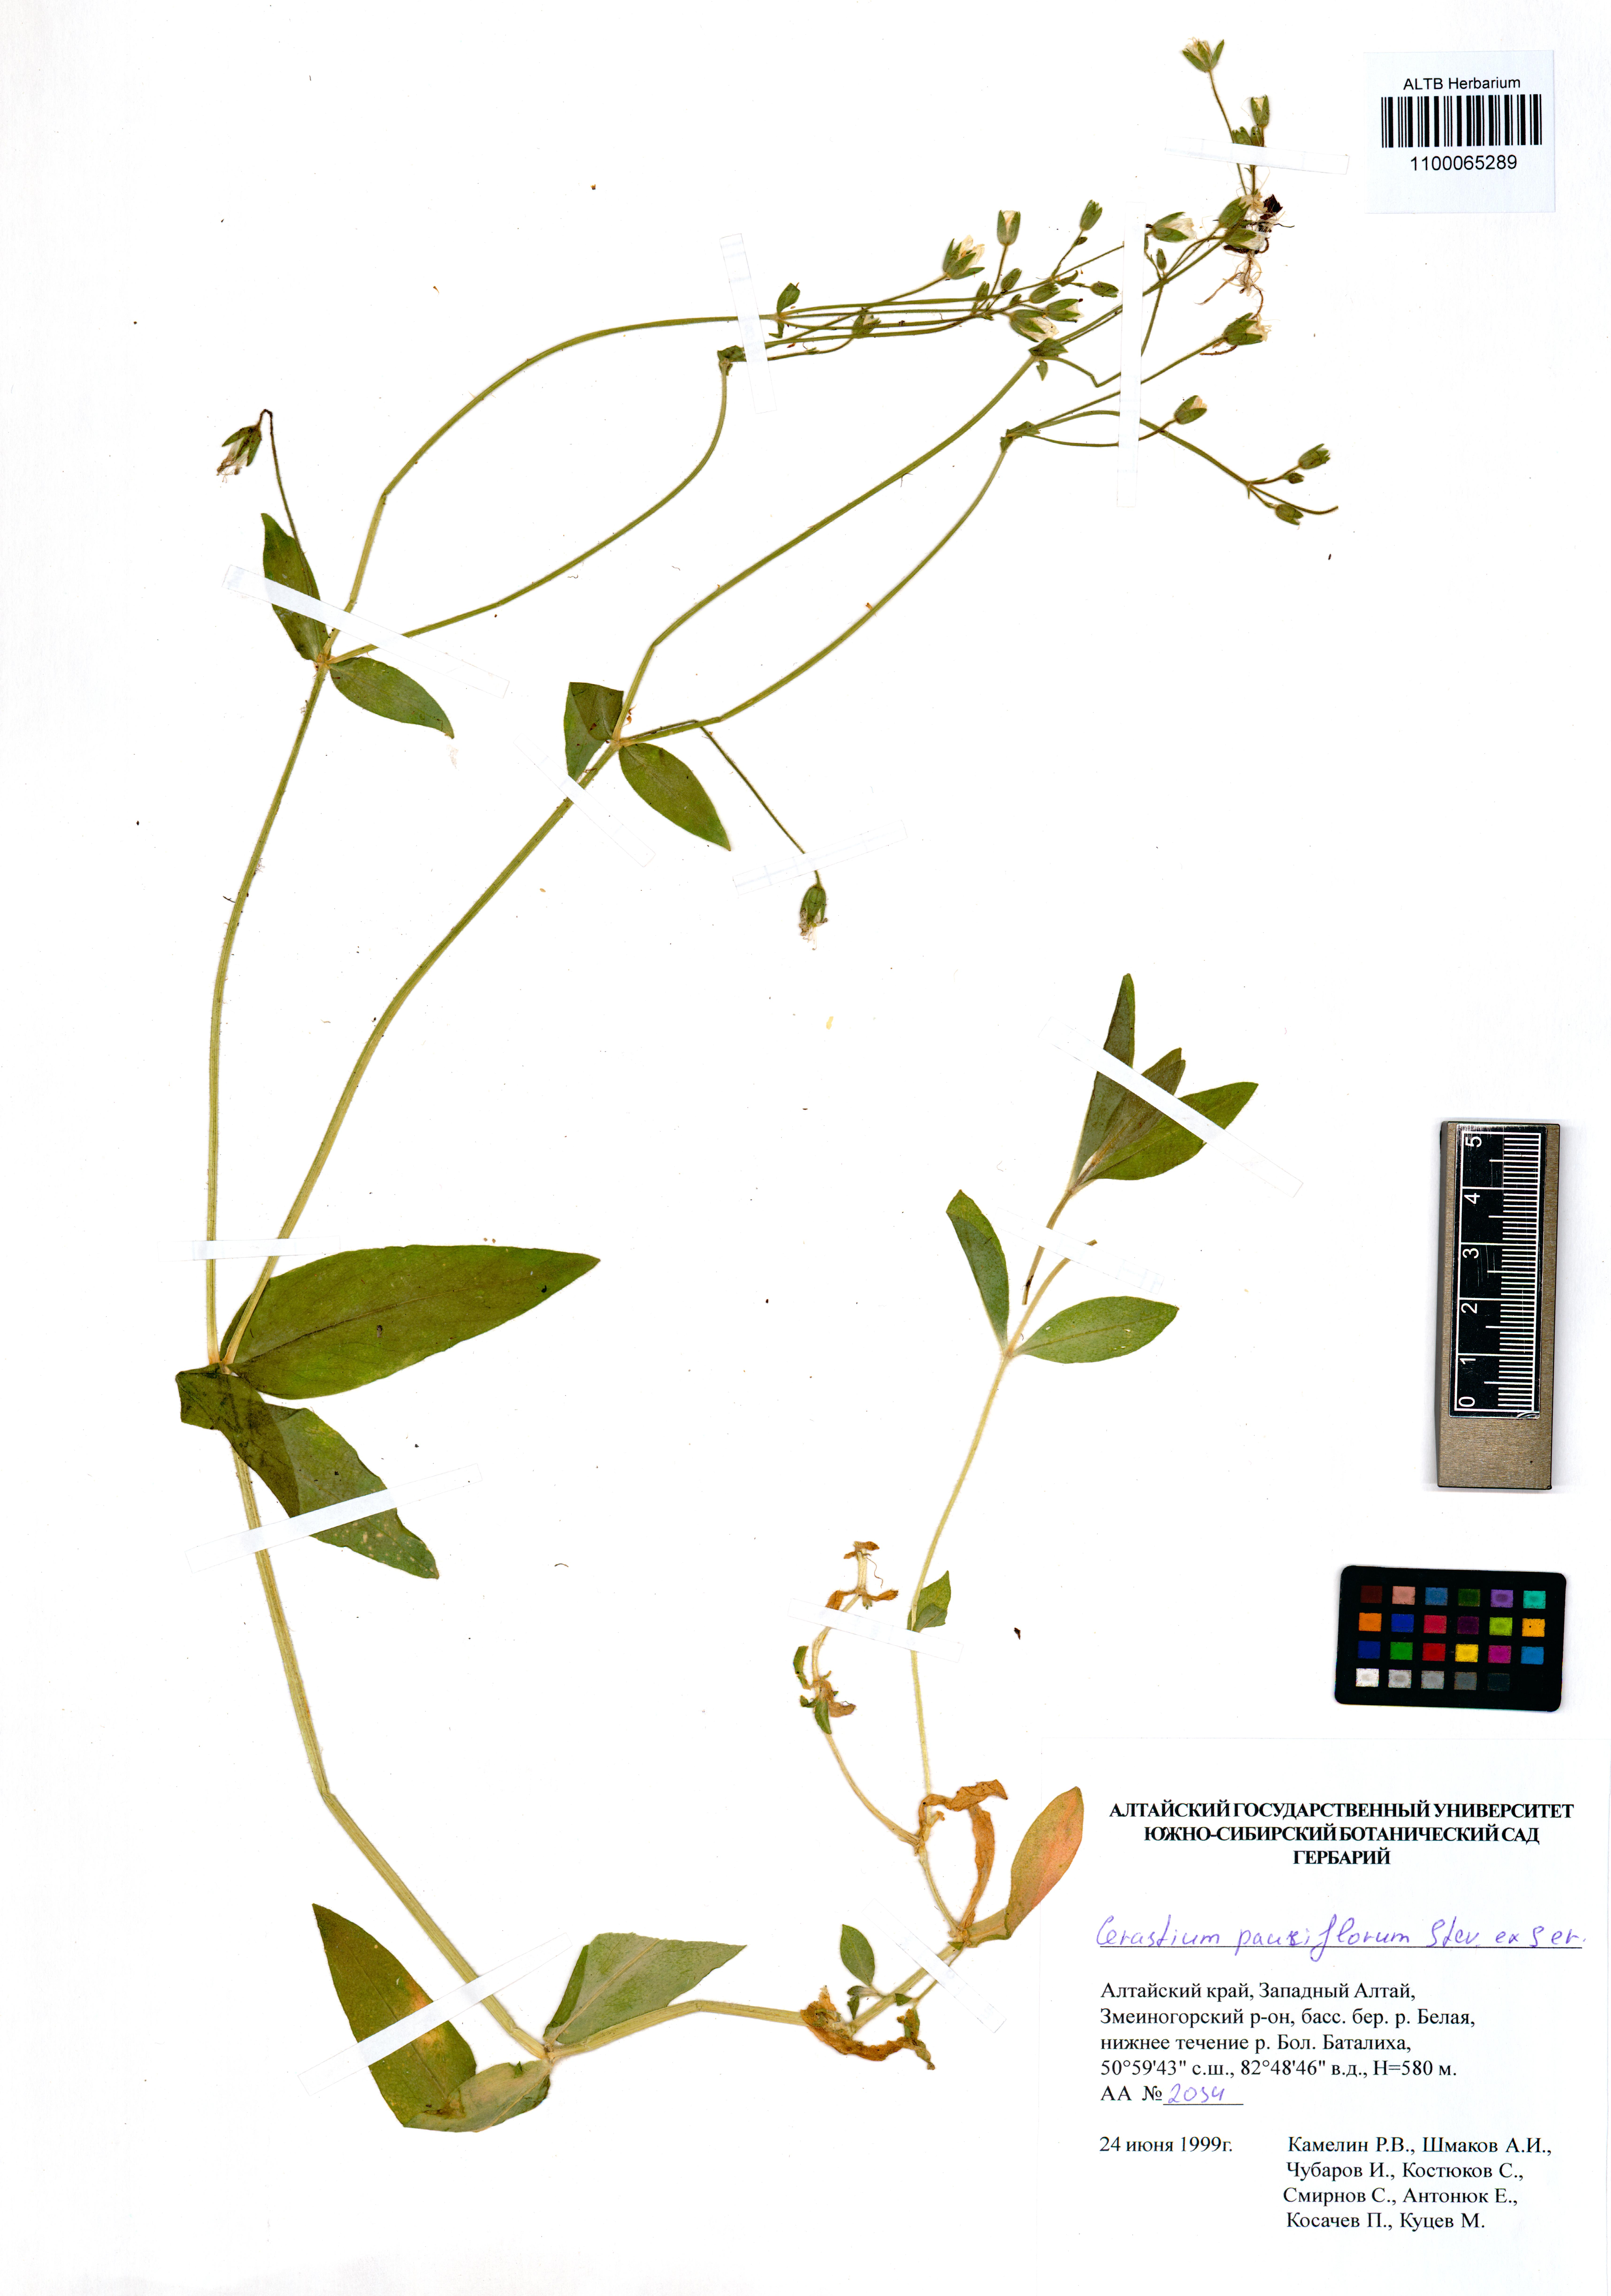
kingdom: Plantae
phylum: Tracheophyta
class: Magnoliopsida
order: Caryophyllales
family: Caryophyllaceae
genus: Cerastium
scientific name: Cerastium pauciflorum
